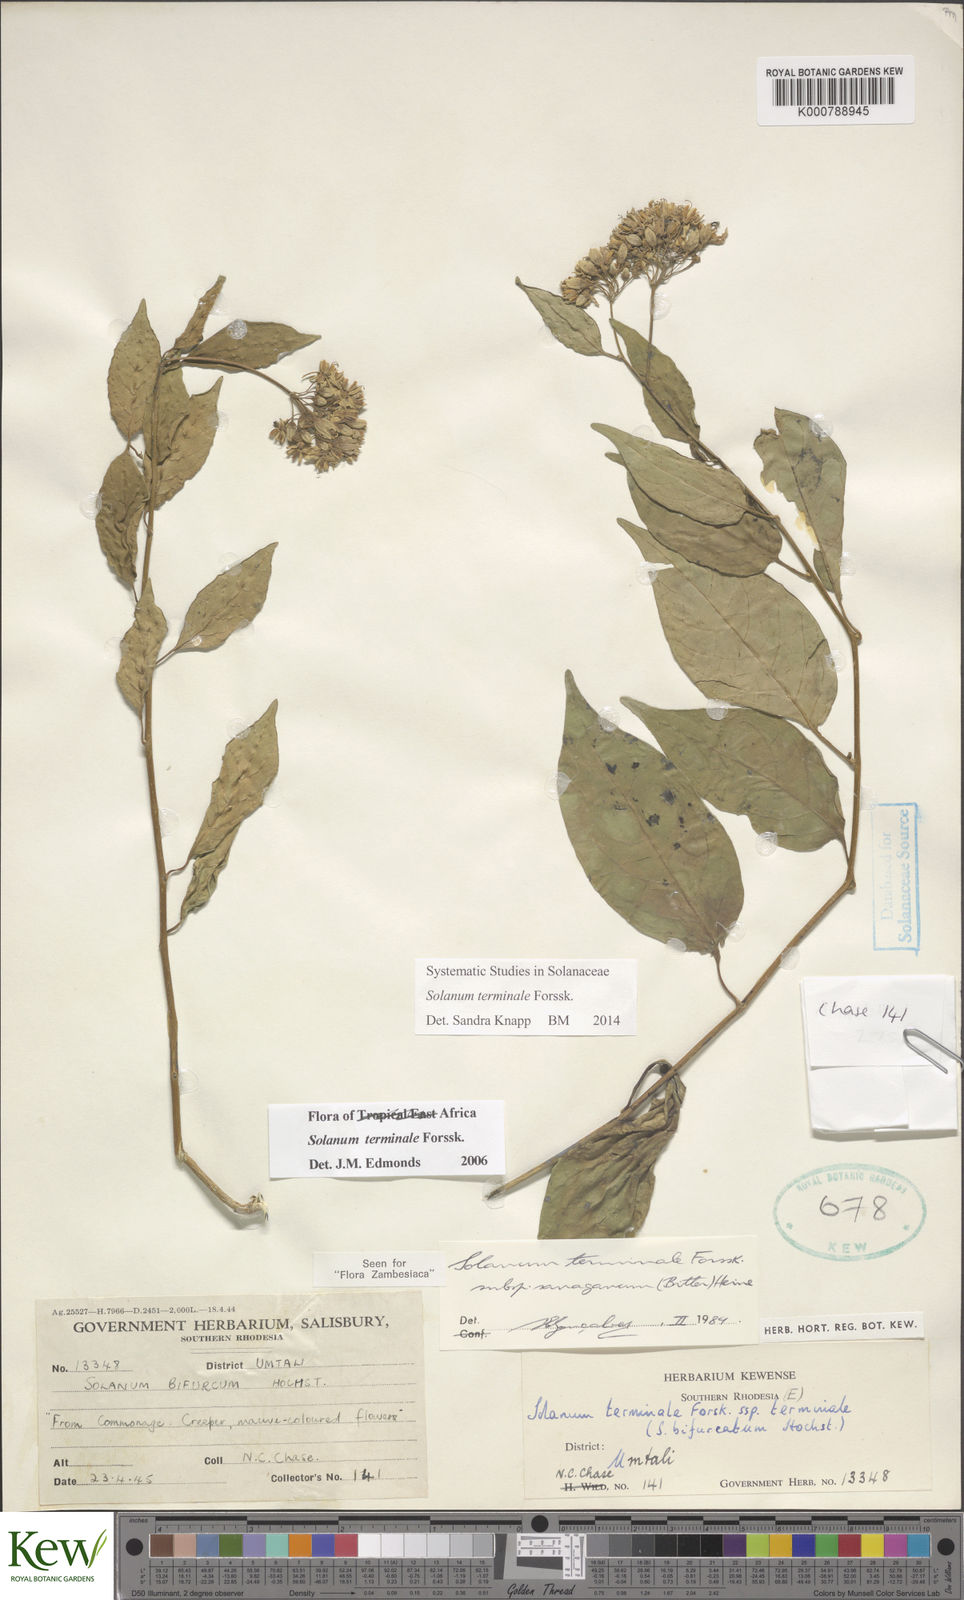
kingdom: Plantae
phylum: Tracheophyta
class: Magnoliopsida
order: Solanales
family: Solanaceae
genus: Solanum
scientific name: Solanum terminale
